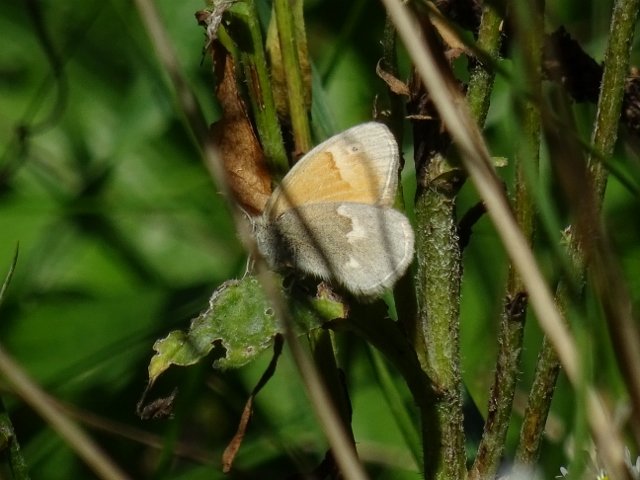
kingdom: Animalia
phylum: Arthropoda
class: Insecta
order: Lepidoptera
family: Nymphalidae
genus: Coenonympha
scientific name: Coenonympha tullia
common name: Large Heath
